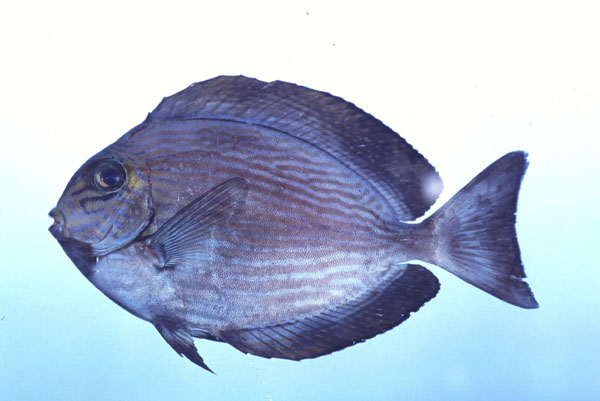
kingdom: Animalia
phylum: Chordata
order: Perciformes
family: Acanthuridae
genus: Acanthurus
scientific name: Acanthurus mata
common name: Bleeker's surgeonfish
